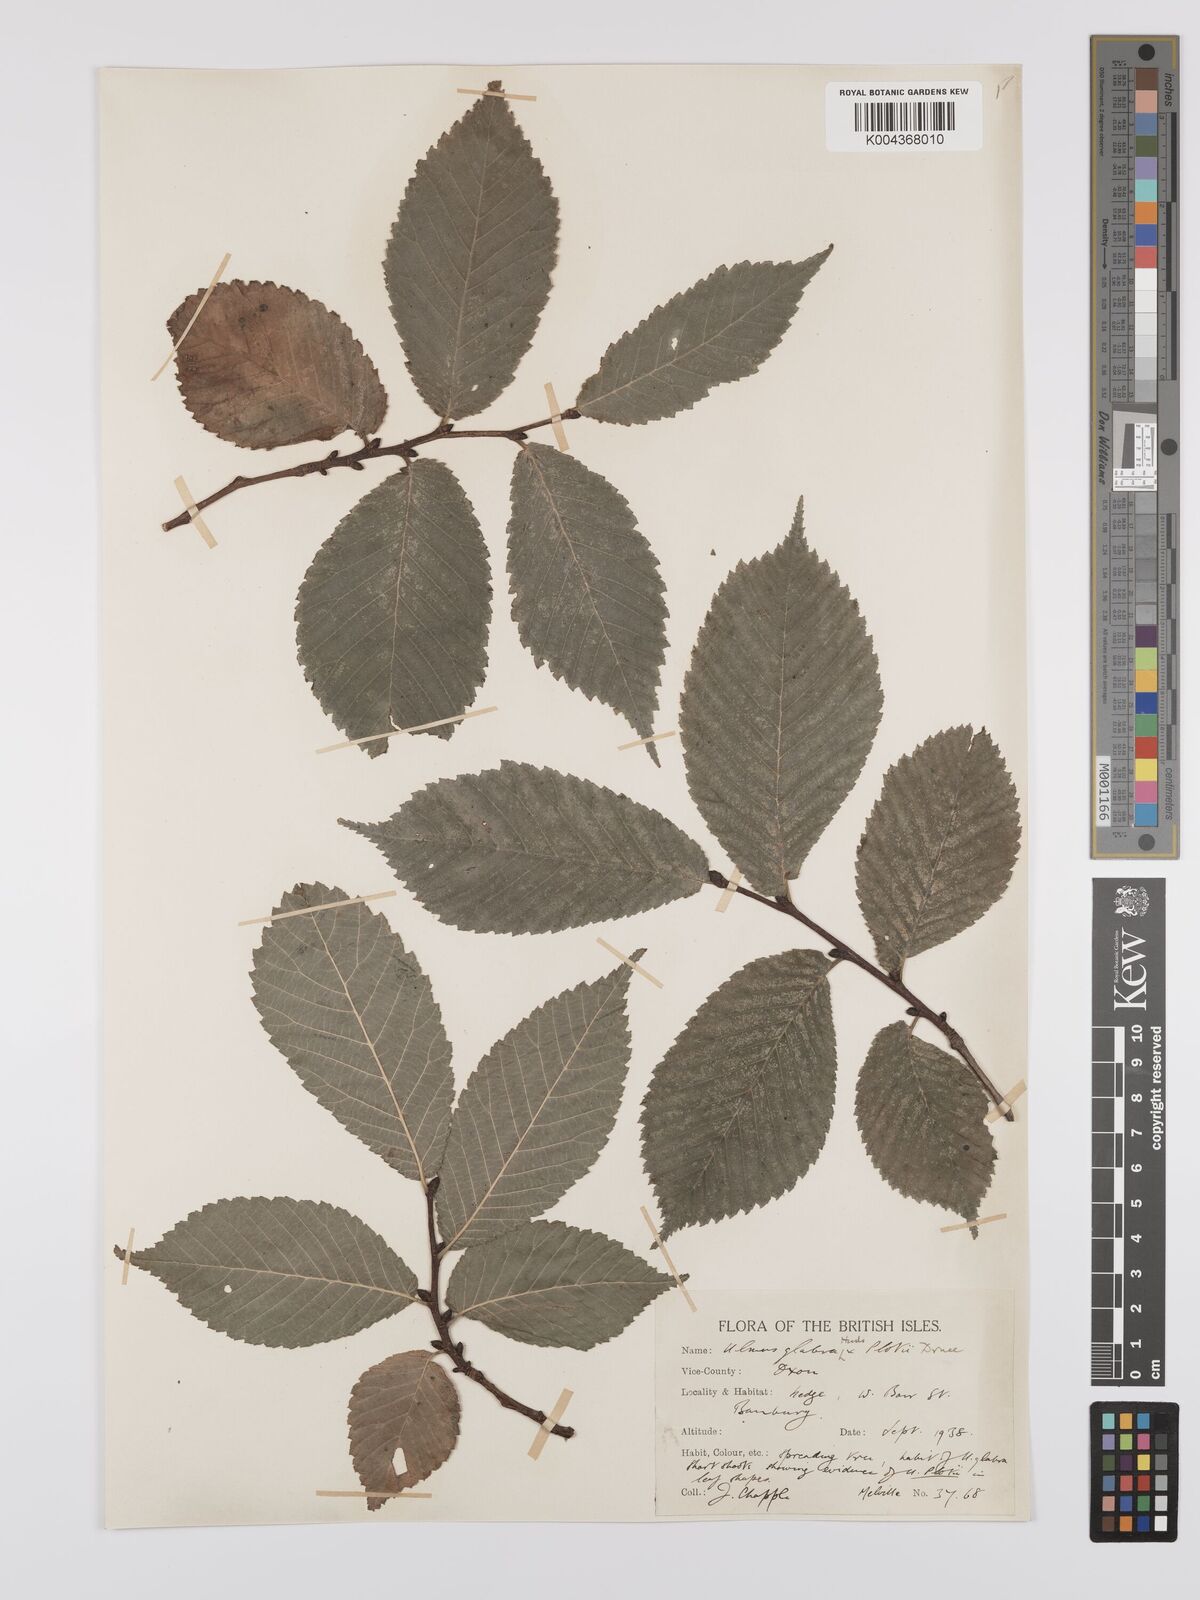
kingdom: Plantae
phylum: Tracheophyta
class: Magnoliopsida
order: Rosales
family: Ulmaceae
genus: Ulmus
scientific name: Ulmus
